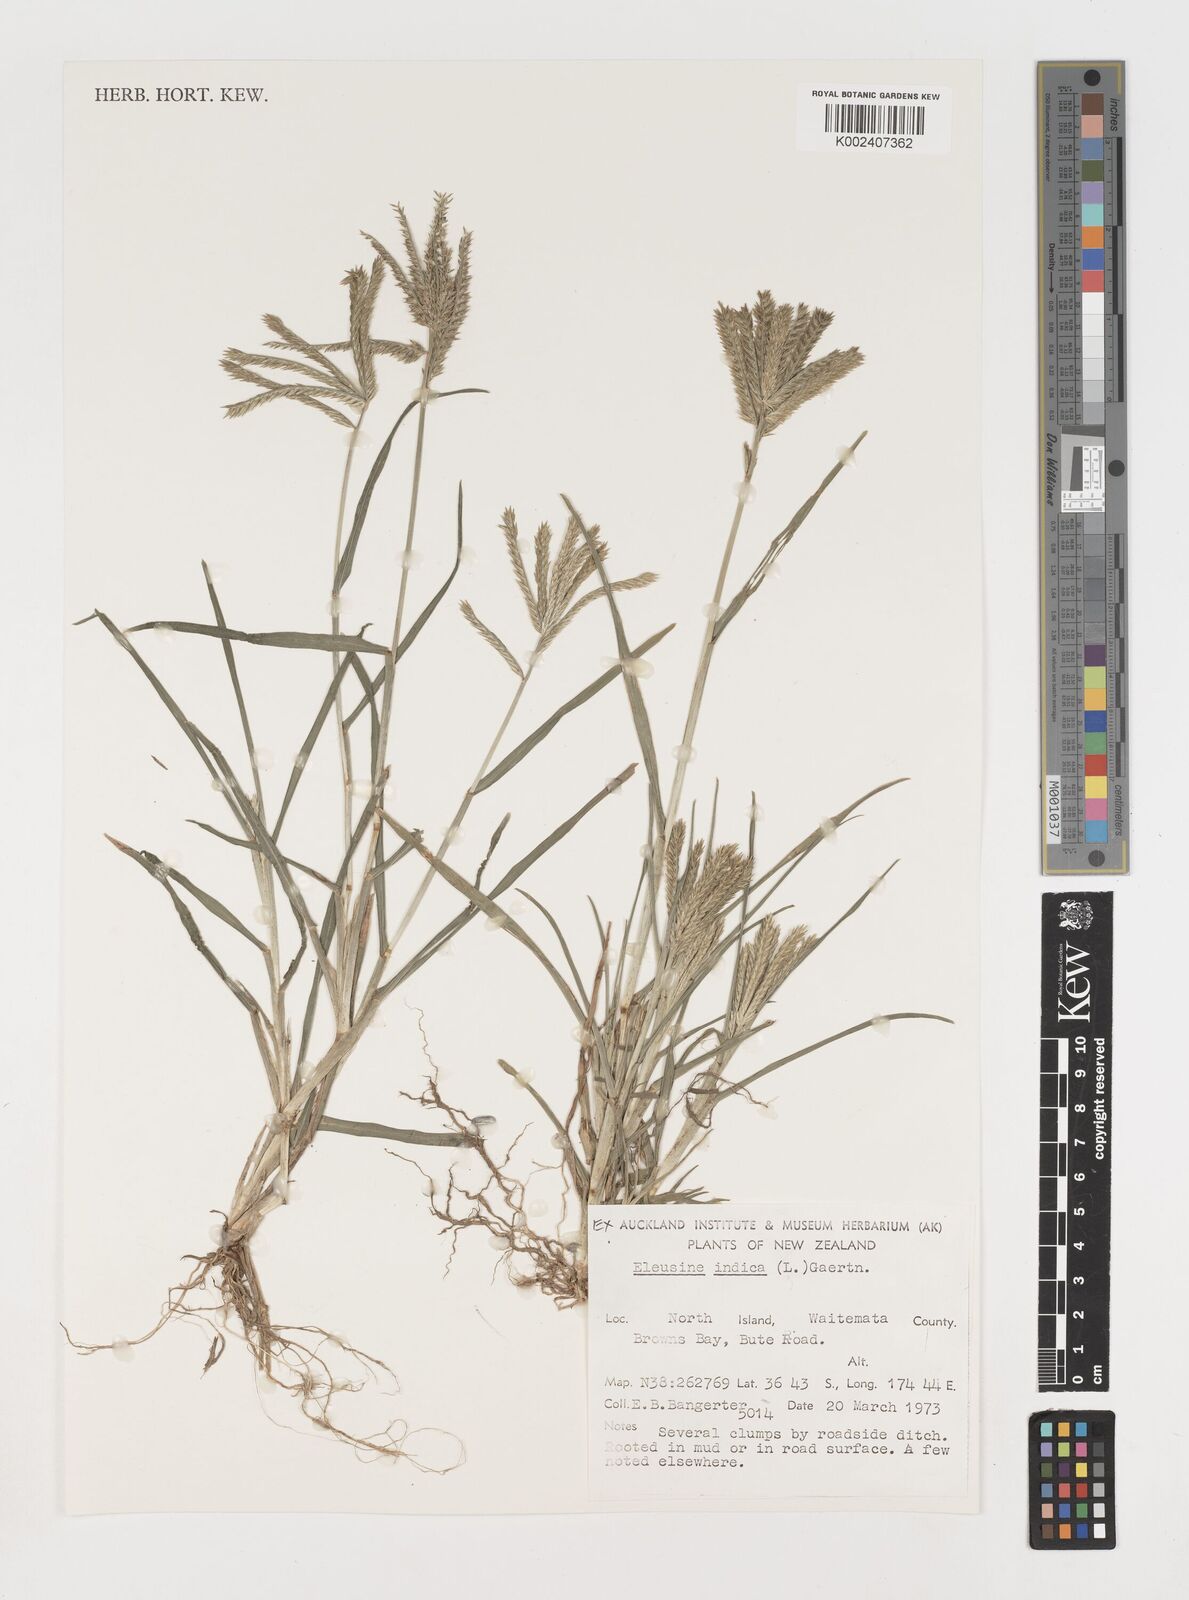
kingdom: Plantae
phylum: Tracheophyta
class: Liliopsida
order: Poales
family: Poaceae
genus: Eleusine
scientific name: Eleusine indica
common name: Yard-grass
